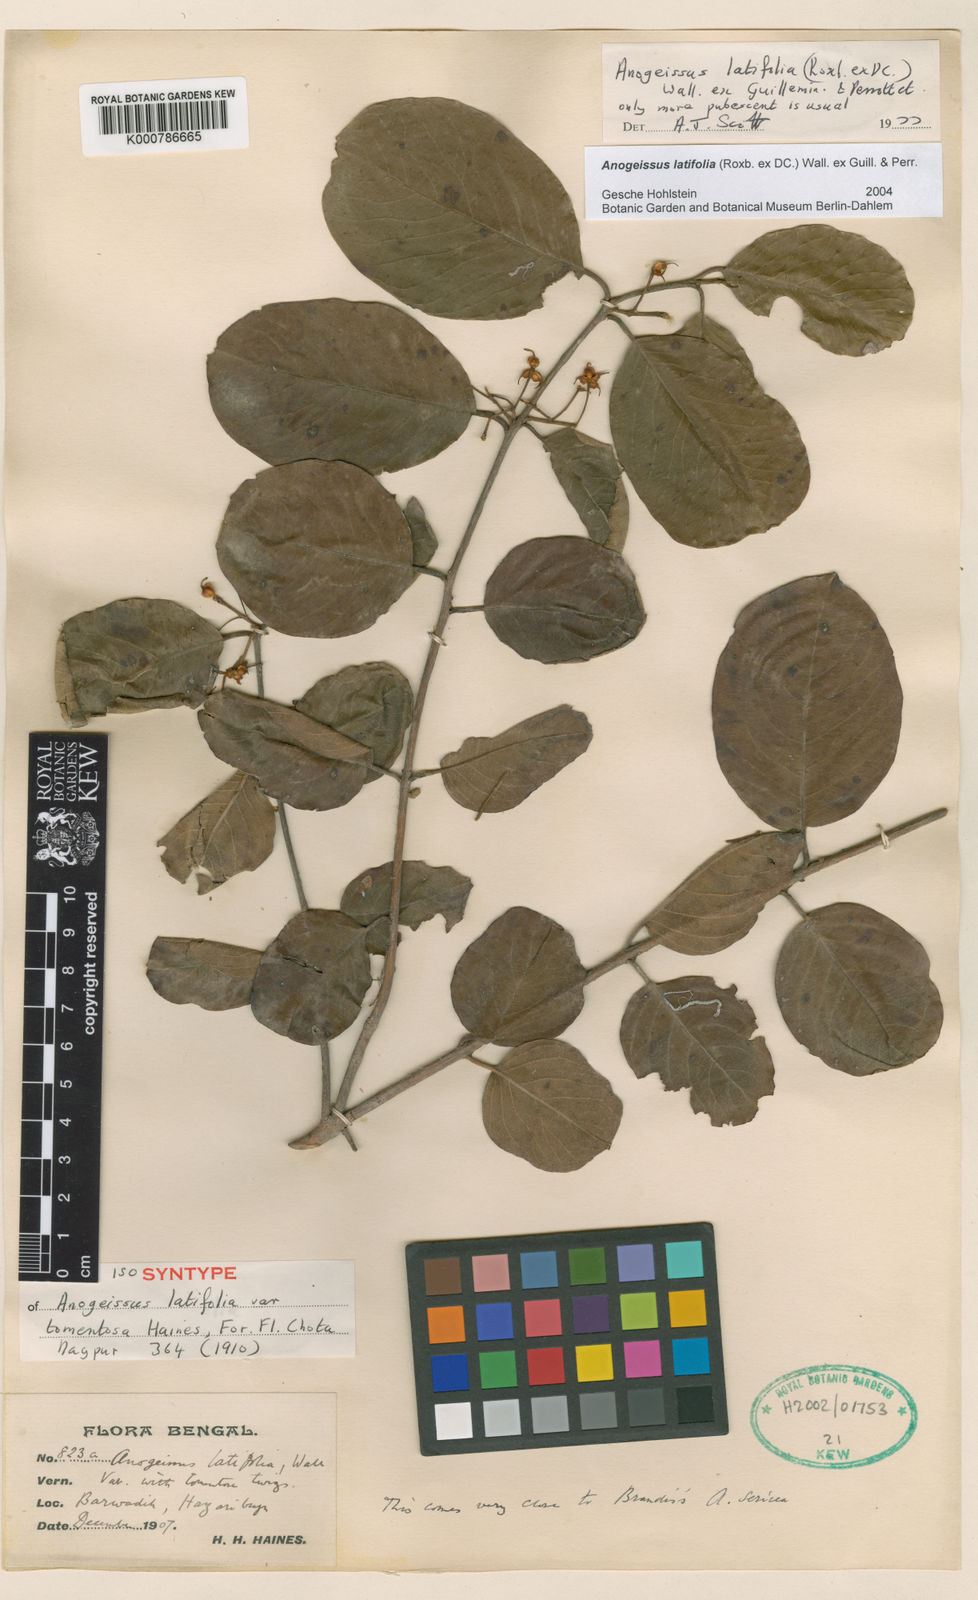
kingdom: Plantae
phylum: Tracheophyta
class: Magnoliopsida
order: Myrtales
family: Combretaceae
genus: Terminalia
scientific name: Terminalia anogeissiana
